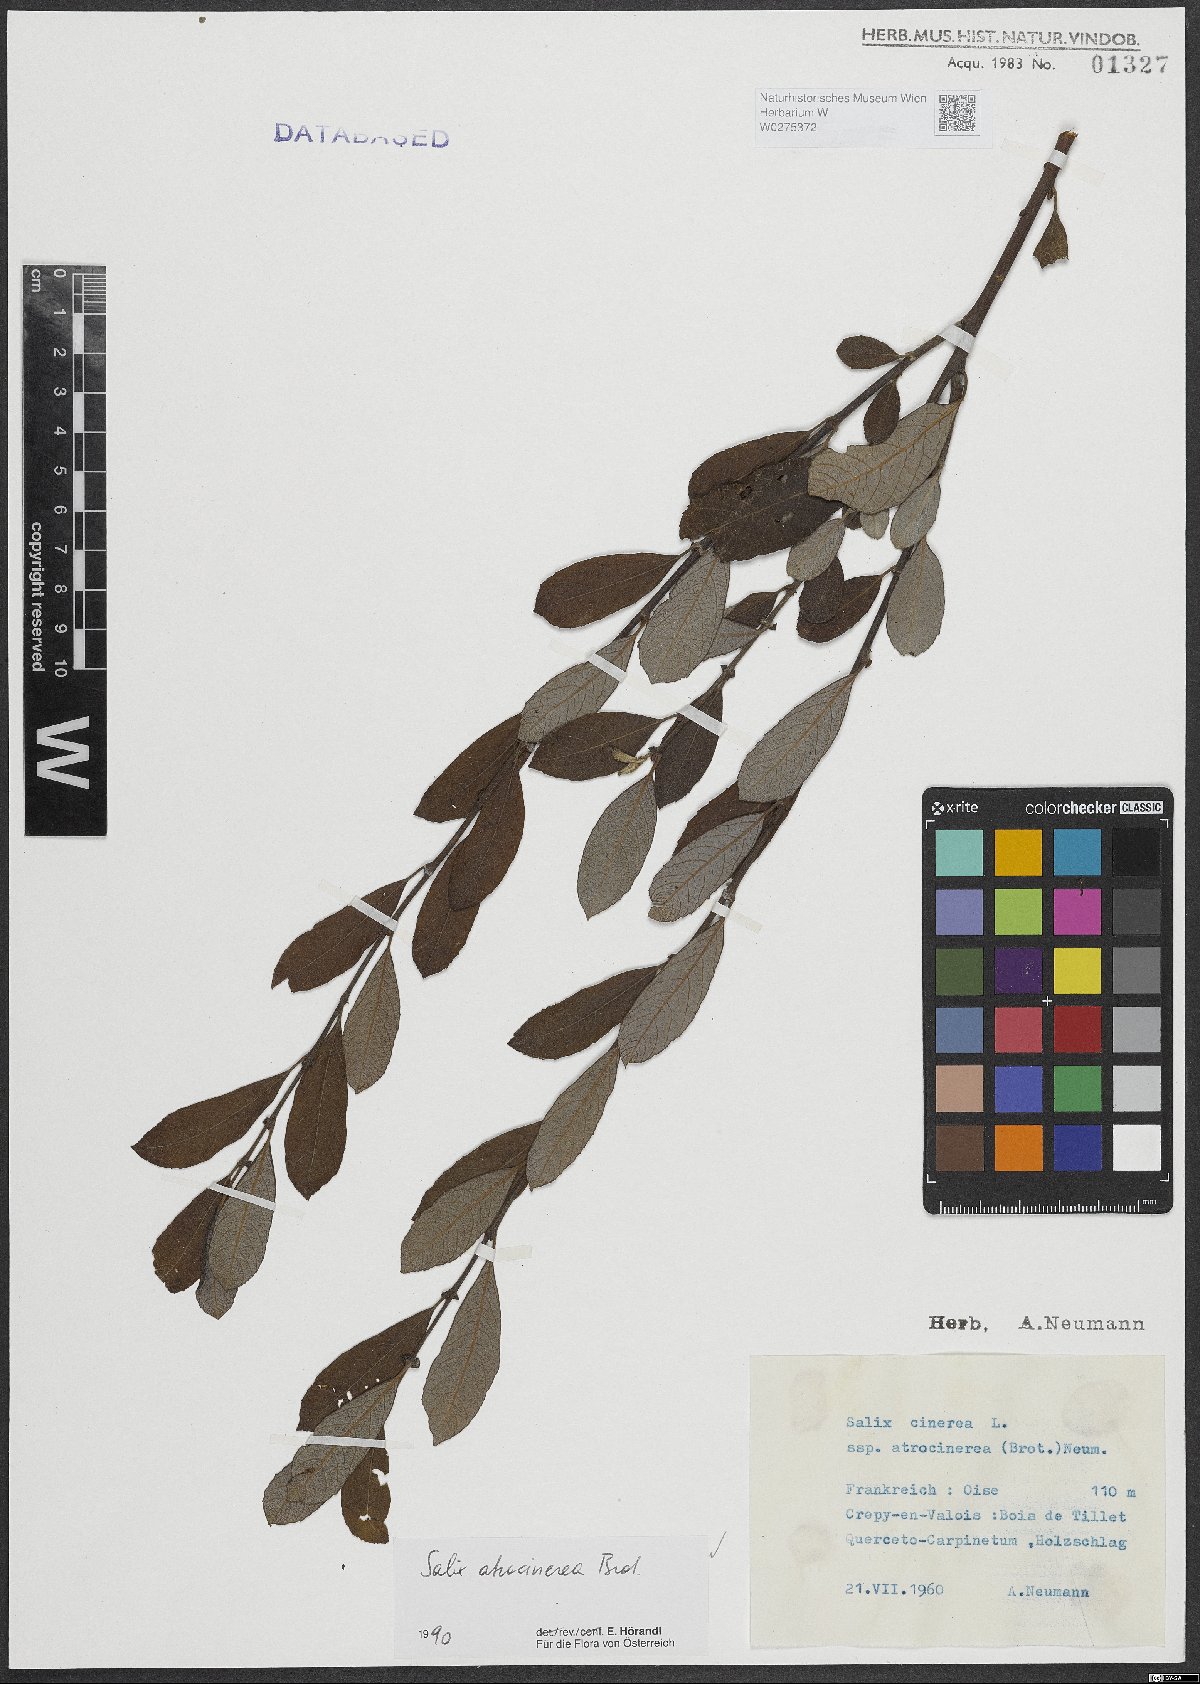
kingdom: Plantae
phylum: Tracheophyta
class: Magnoliopsida
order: Malpighiales
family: Salicaceae
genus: Salix
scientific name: Salix atrocinerea
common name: Rusty willow
